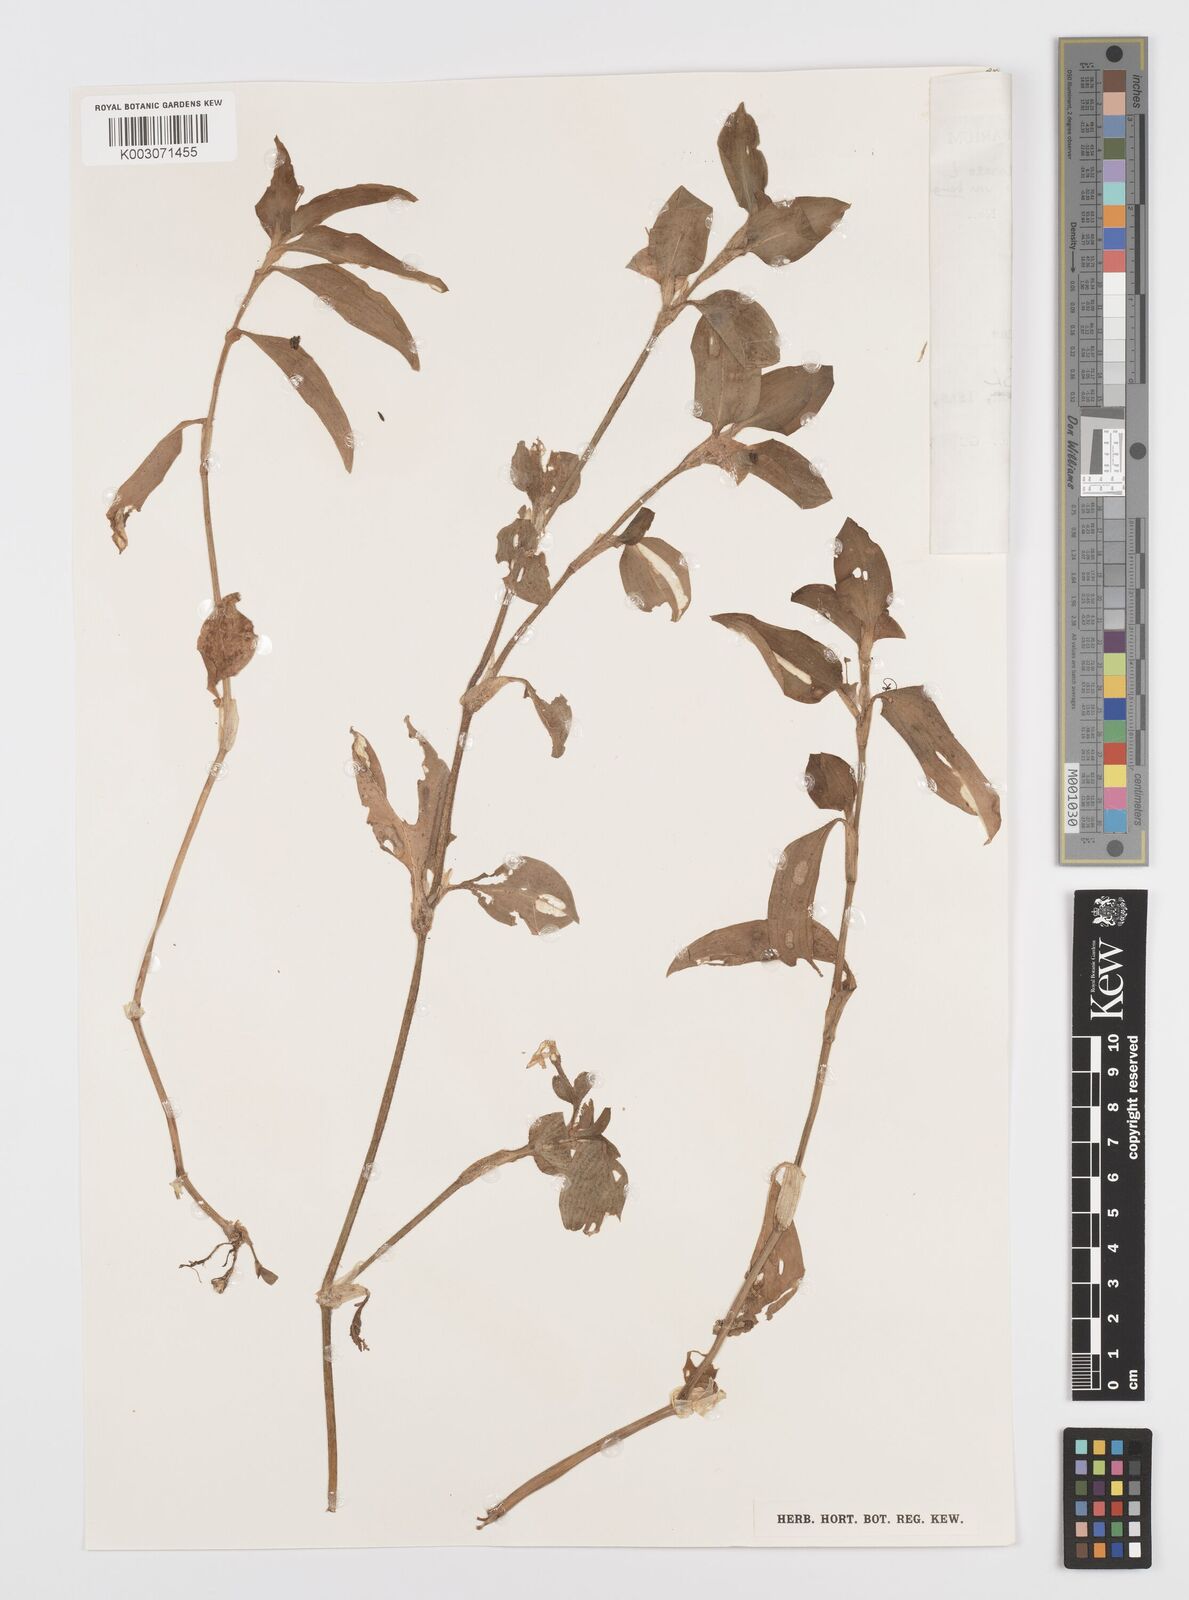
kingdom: Plantae
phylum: Tracheophyta
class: Liliopsida
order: Commelinales
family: Commelinaceae
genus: Commelina
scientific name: Commelina benghalensis
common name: Jio
